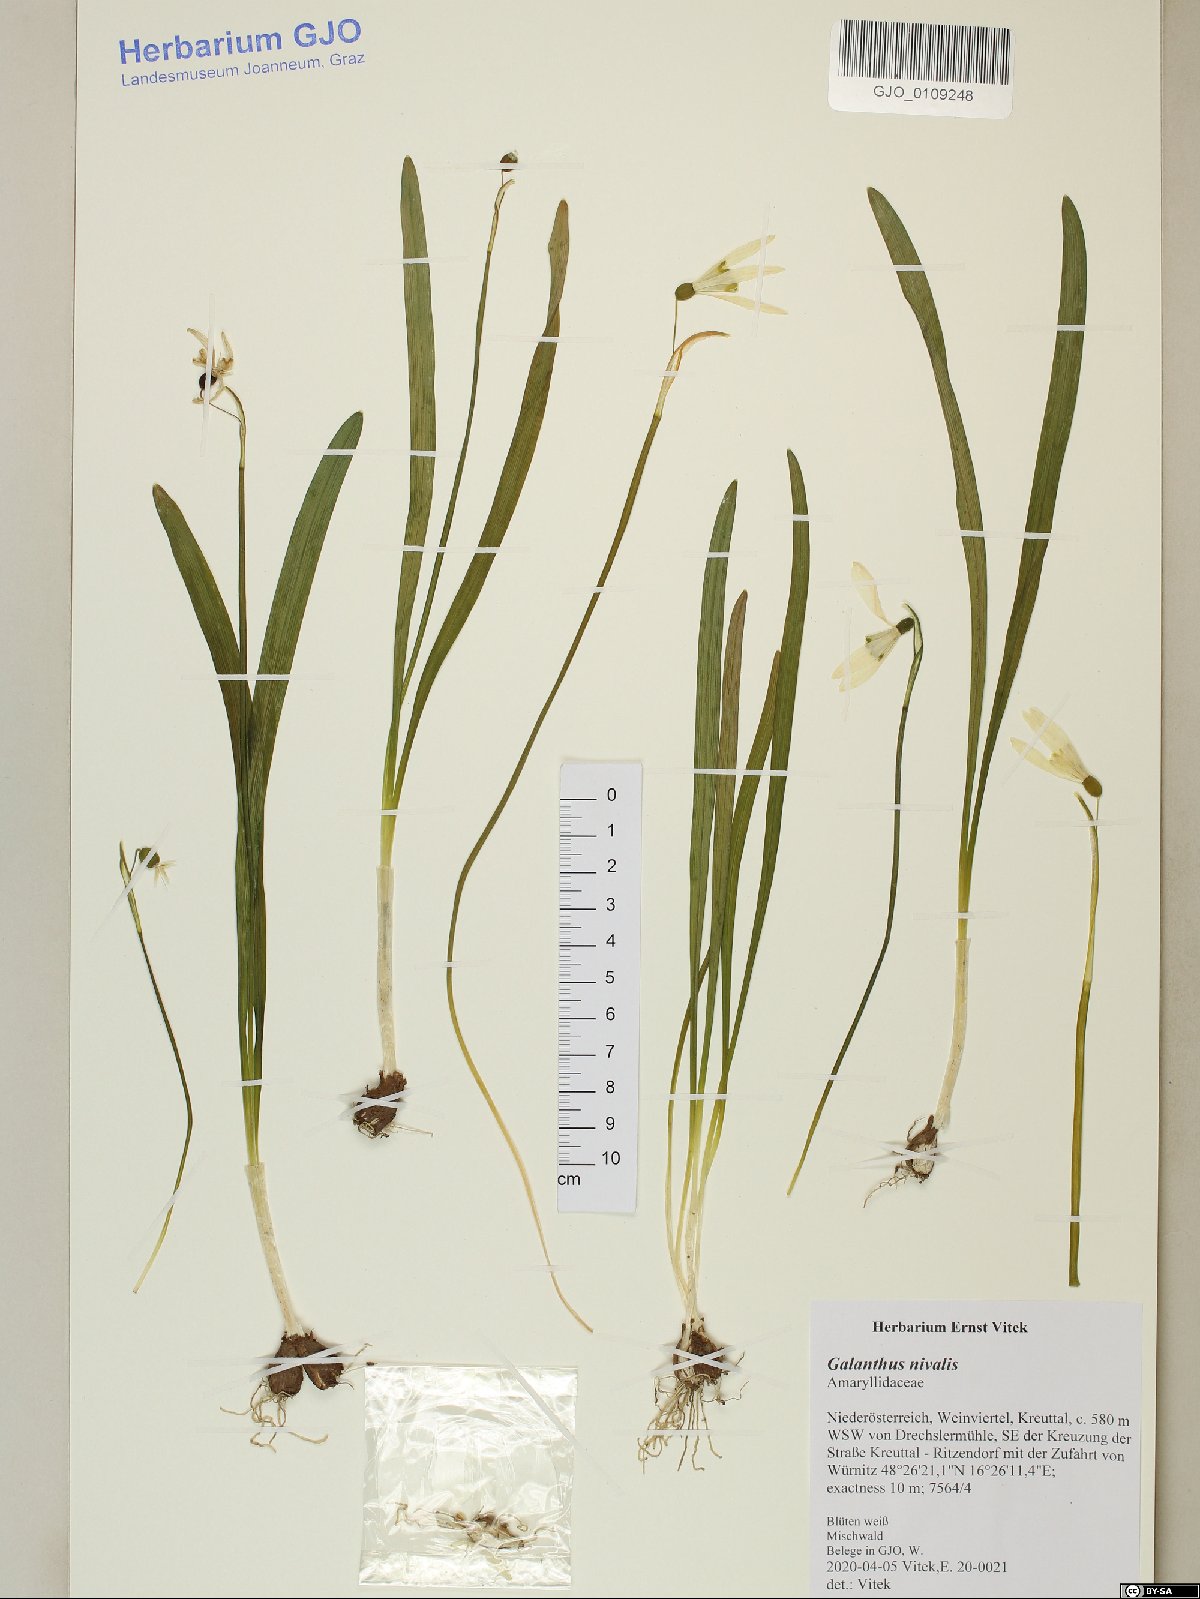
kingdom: Plantae
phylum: Tracheophyta
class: Liliopsida
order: Asparagales
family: Amaryllidaceae
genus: Galanthus
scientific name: Galanthus nivalis
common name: Snowdrop
